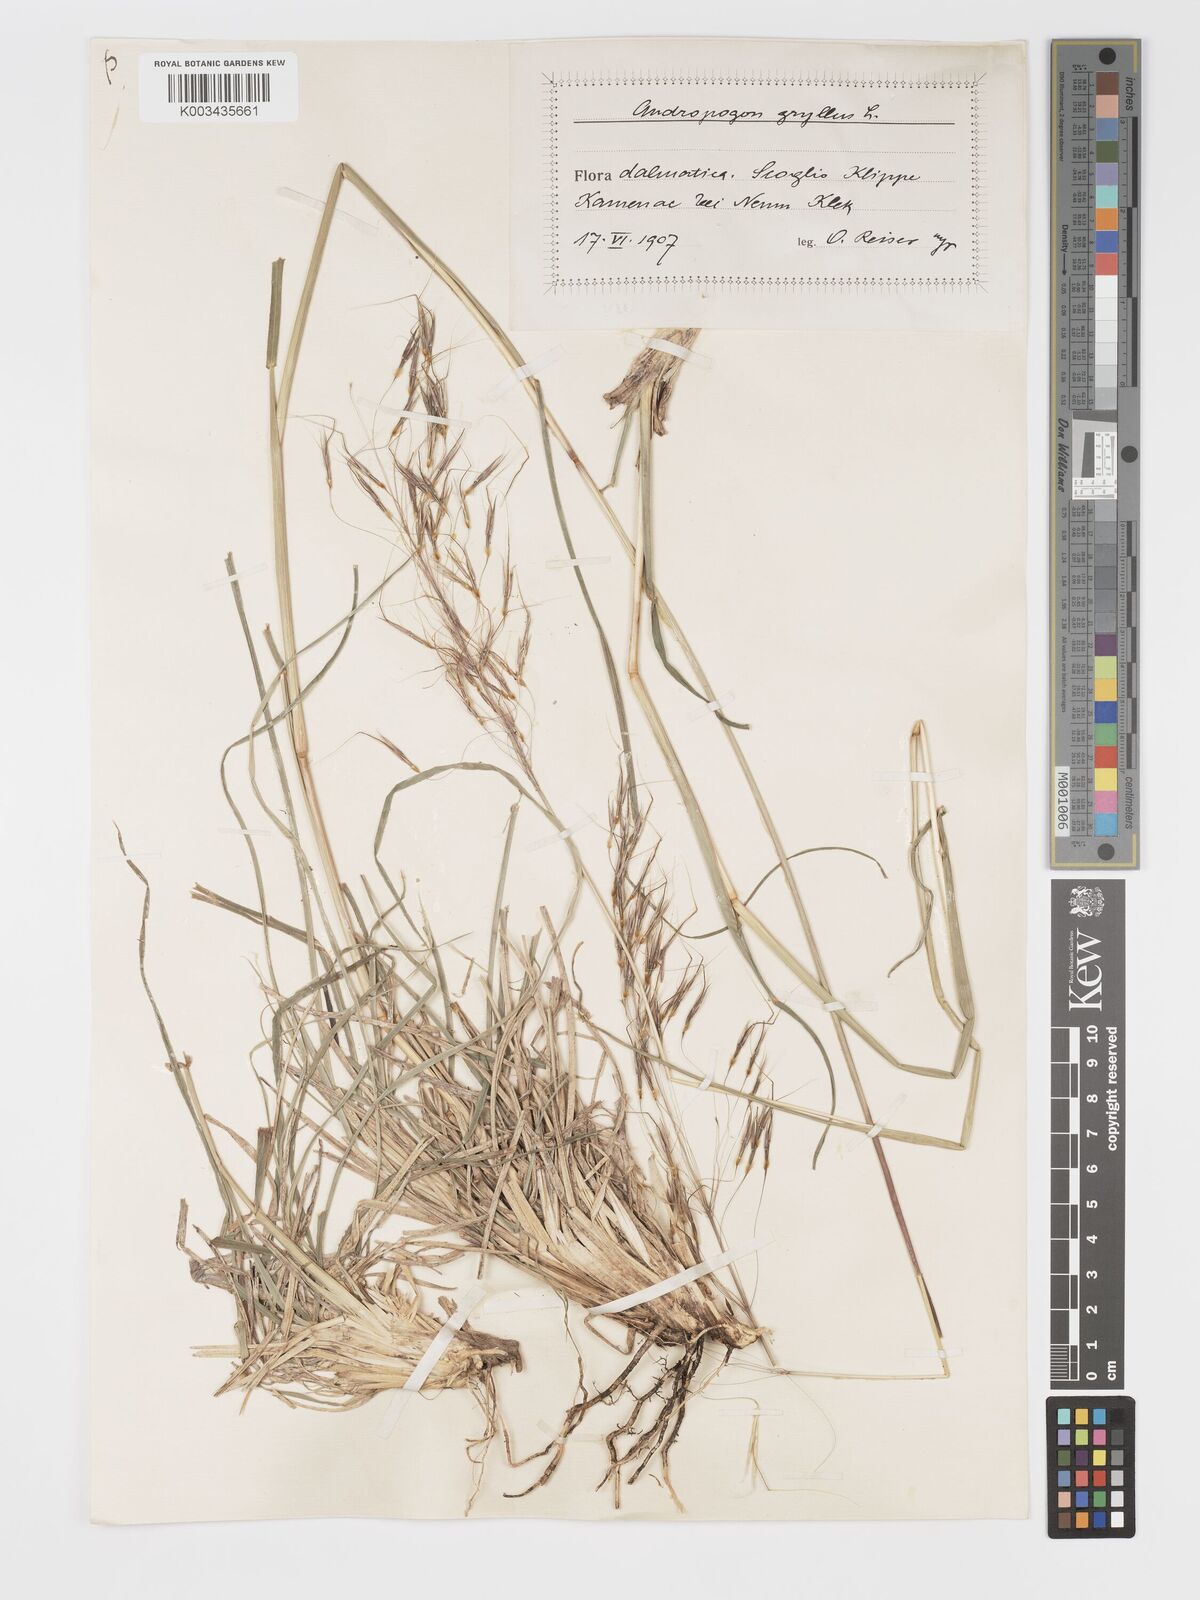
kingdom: Plantae
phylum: Tracheophyta
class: Liliopsida
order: Poales
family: Poaceae
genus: Chrysopogon
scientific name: Chrysopogon gryllus
